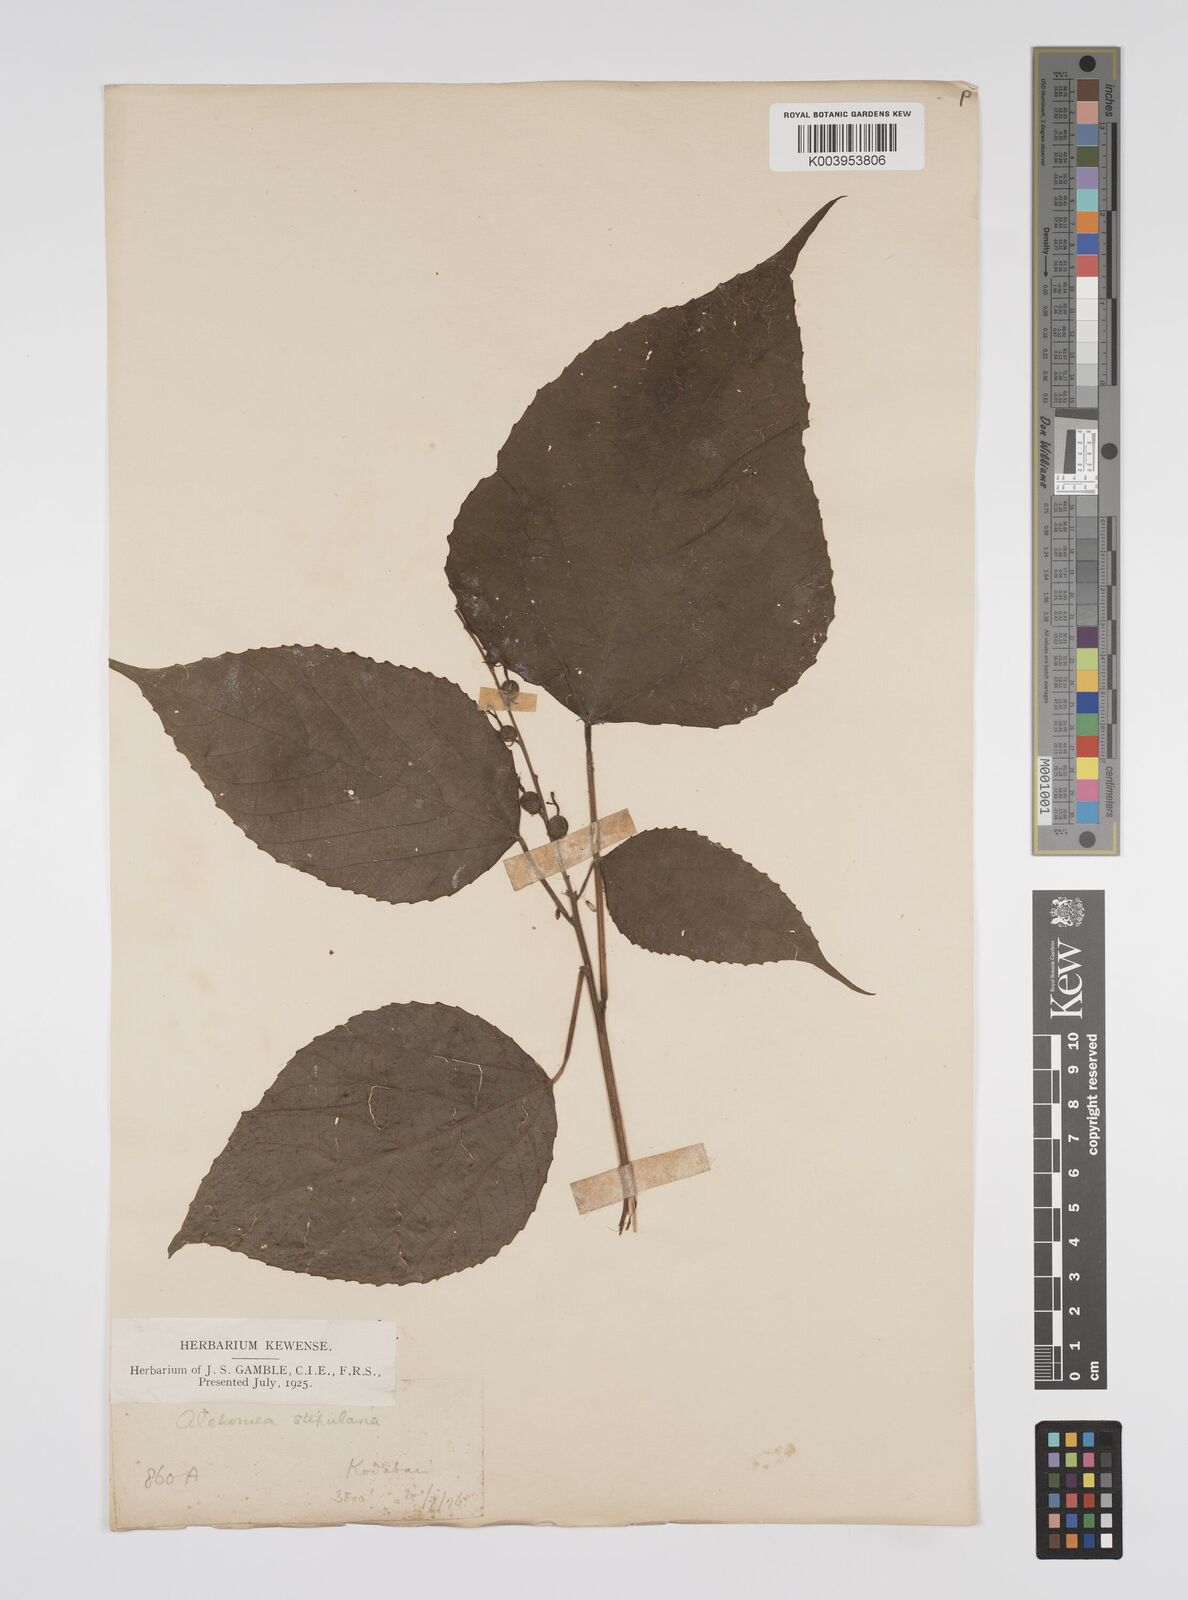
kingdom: Plantae
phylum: Tracheophyta
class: Magnoliopsida
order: Malpighiales
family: Euphorbiaceae
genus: Alchornea
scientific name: Alchornea tiliifolia
